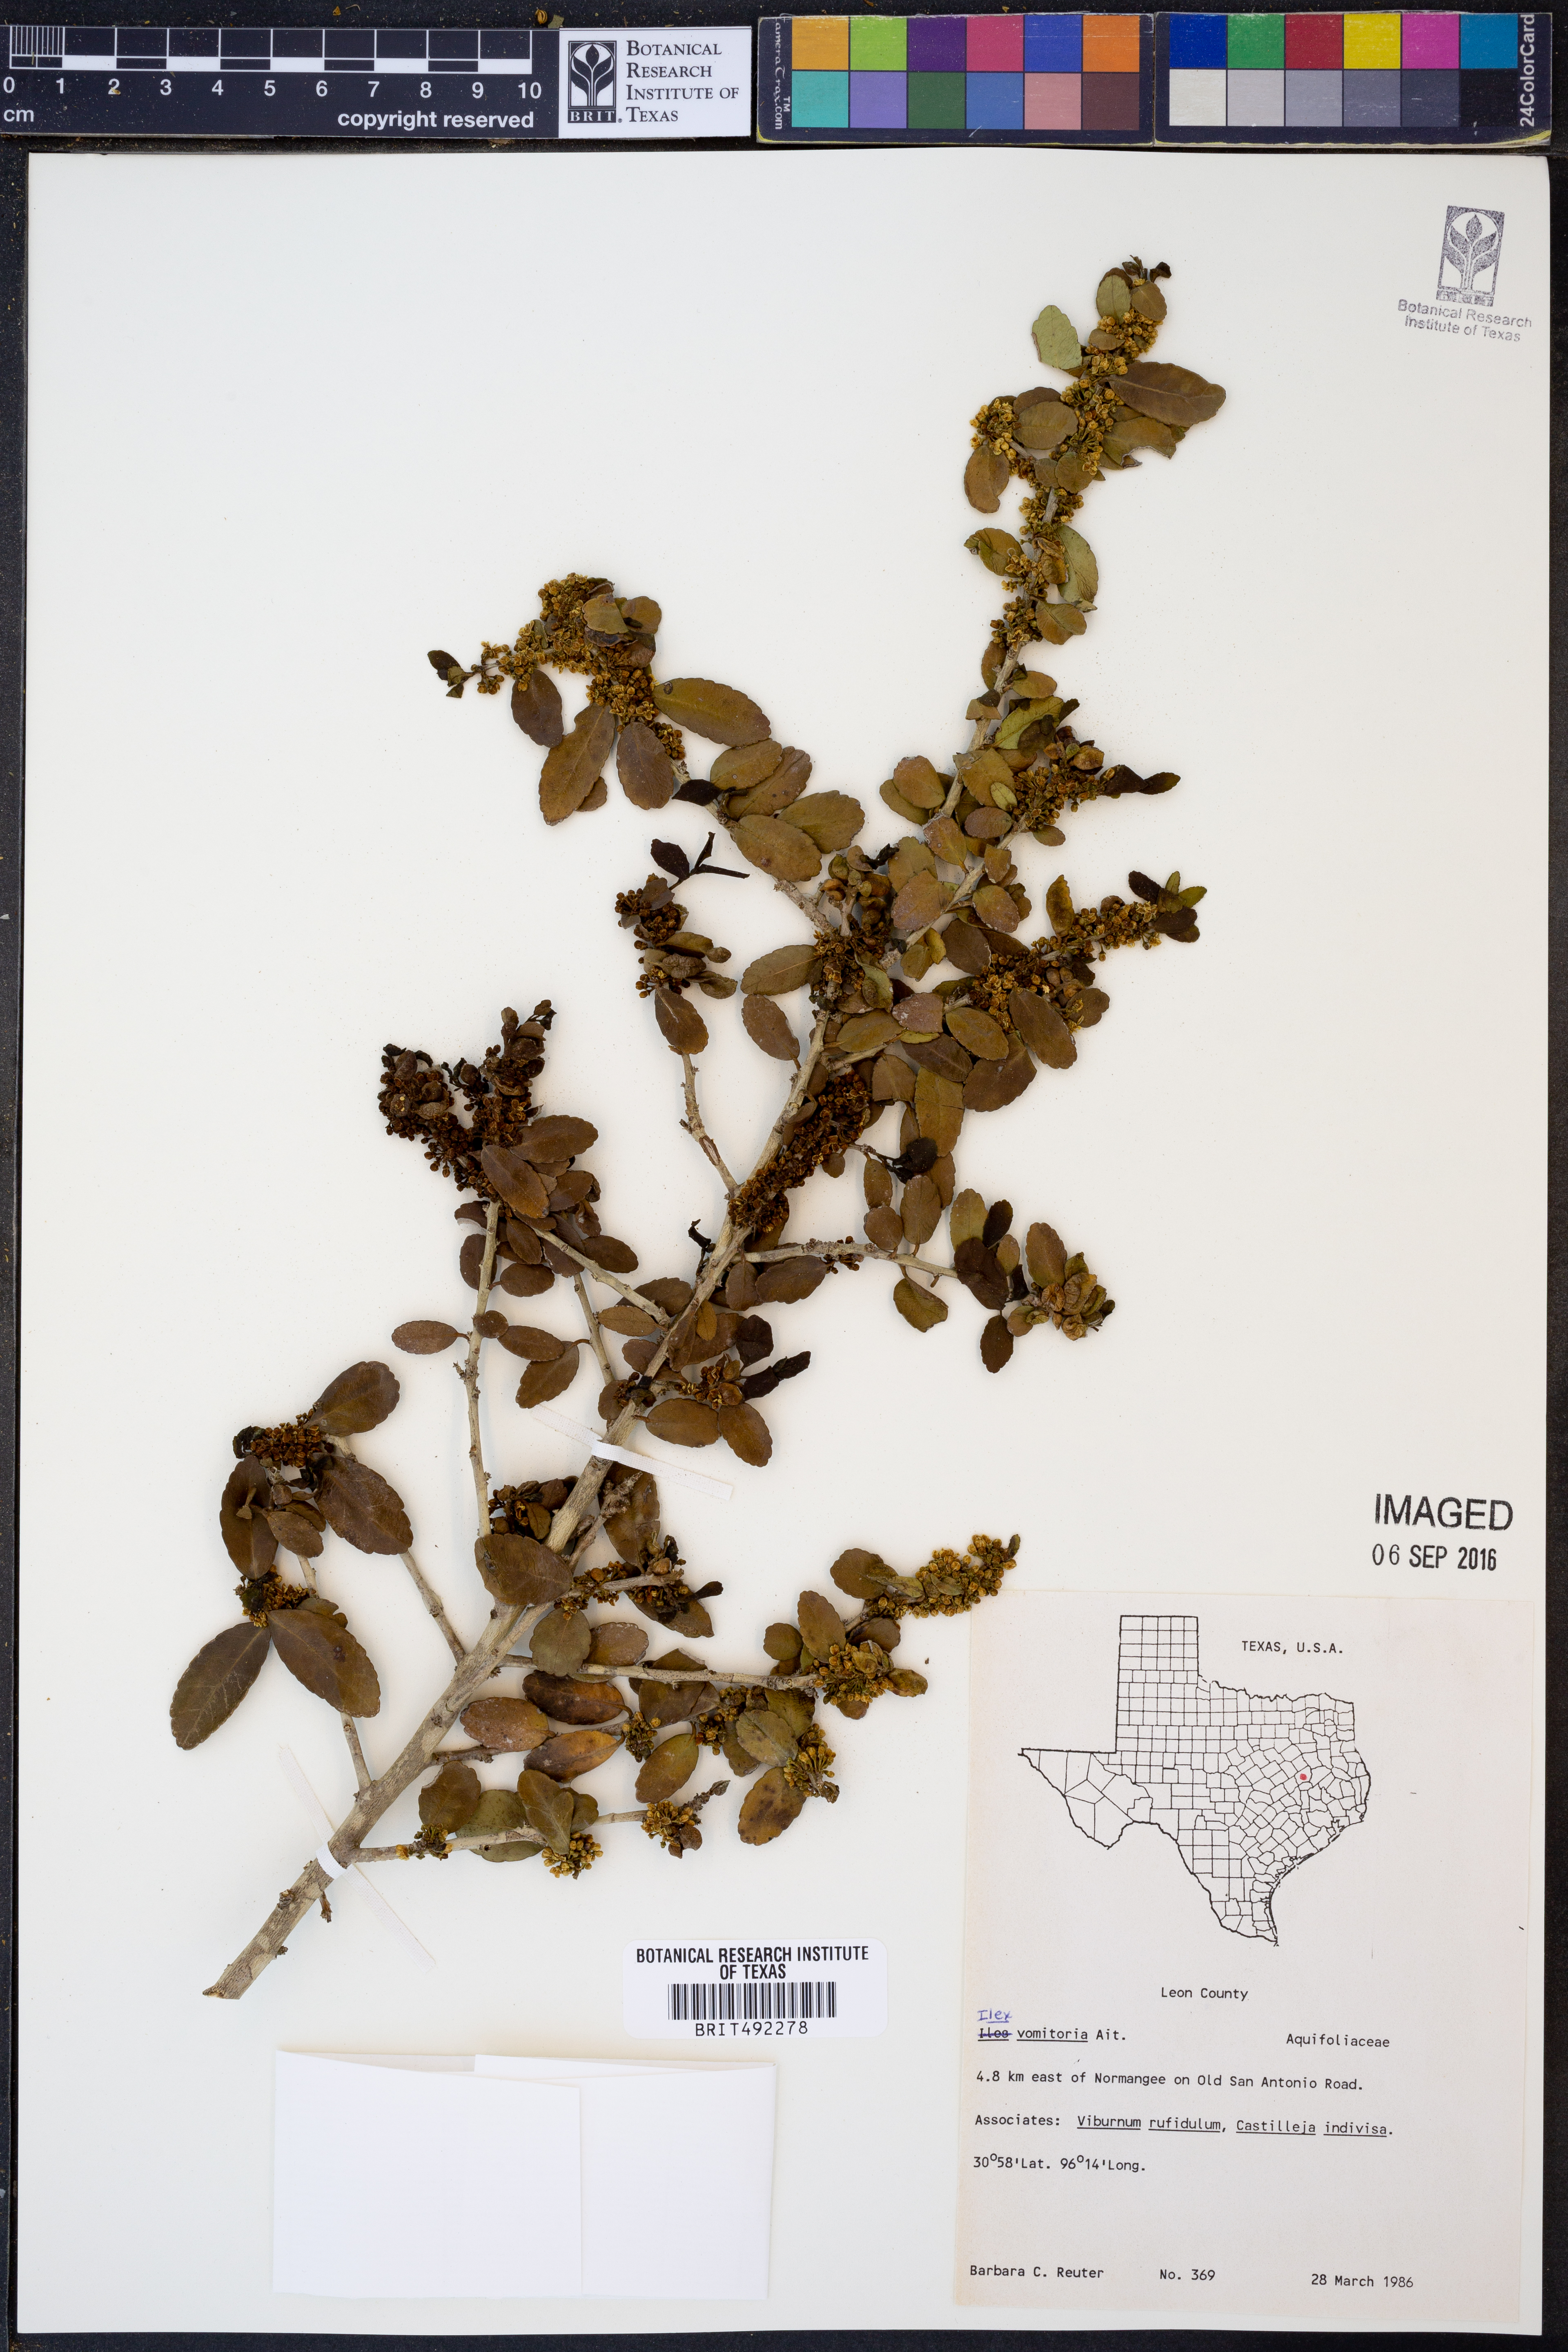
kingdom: Plantae
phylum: Tracheophyta
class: Magnoliopsida
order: Aquifoliales
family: Aquifoliaceae
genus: Ilex
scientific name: Ilex vomitoria
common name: Yaupon holly
